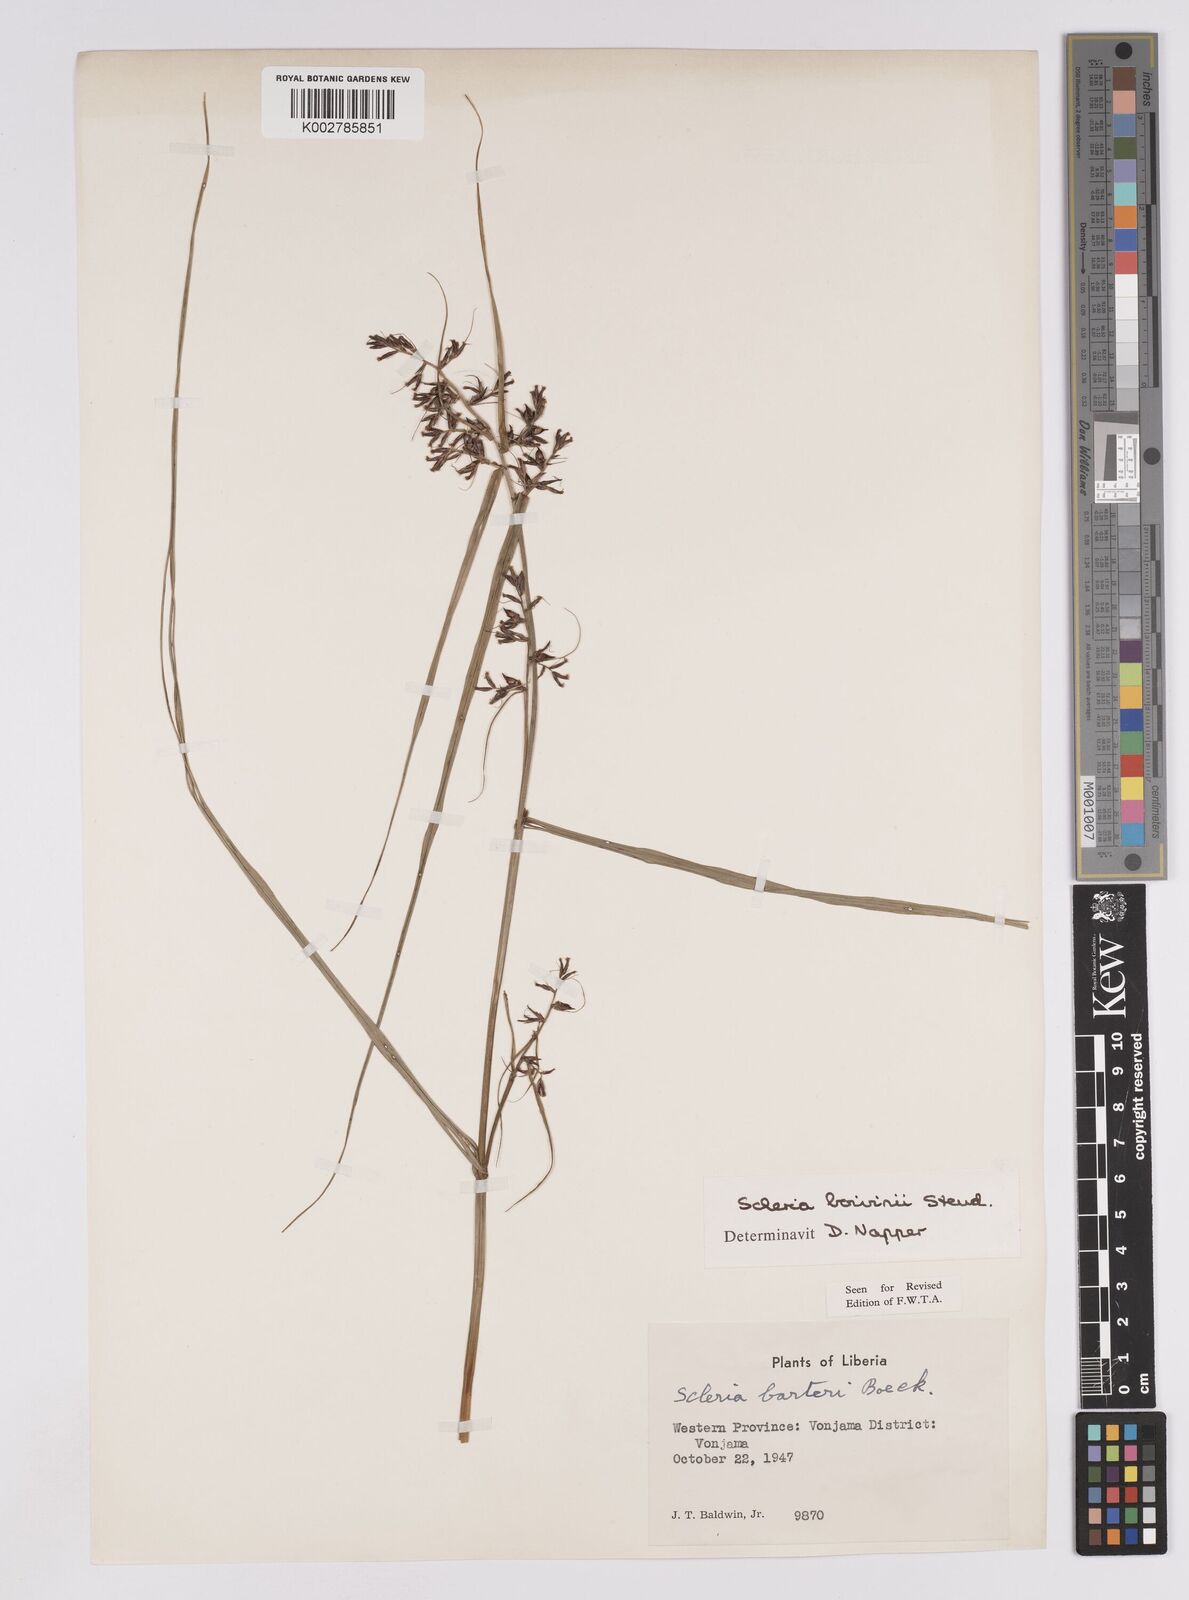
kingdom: Plantae
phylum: Tracheophyta
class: Liliopsida
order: Poales
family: Cyperaceae
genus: Scleria
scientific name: Scleria boivinii
